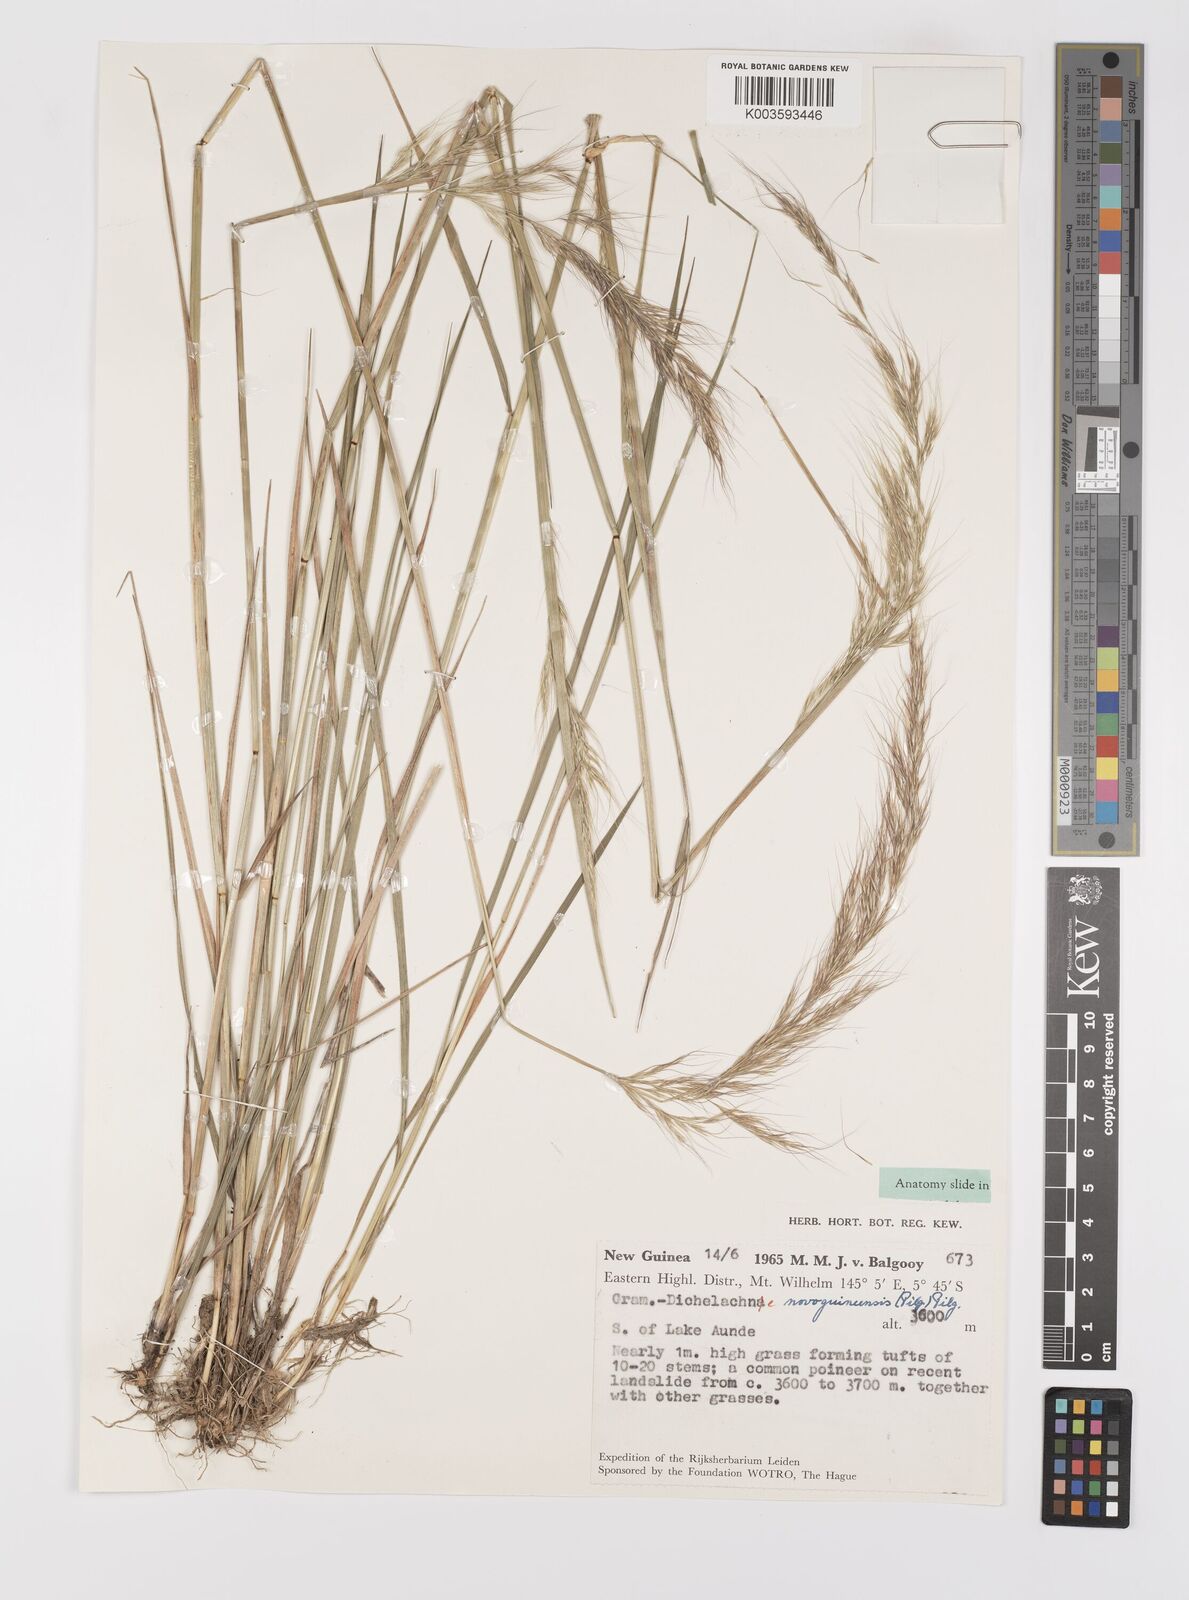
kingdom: Plantae
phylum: Tracheophyta
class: Liliopsida
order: Poales
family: Poaceae
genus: Dichelachne
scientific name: Dichelachne rara
